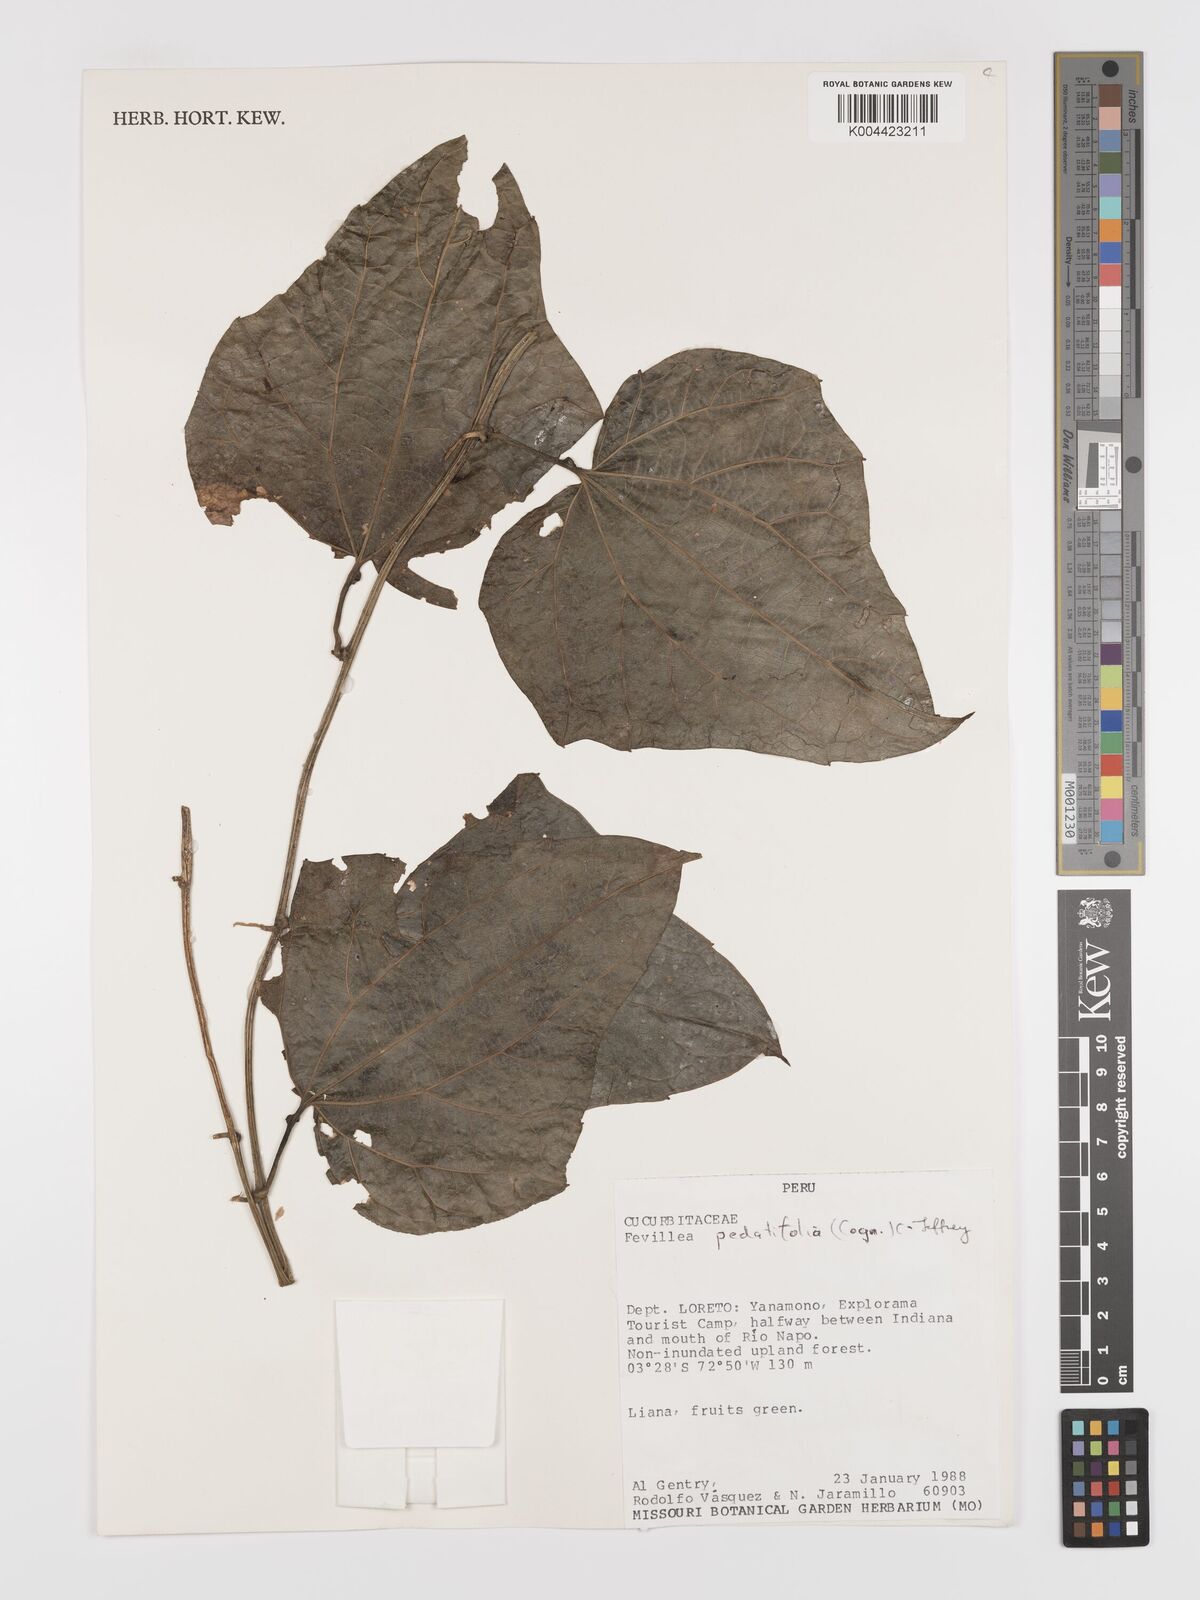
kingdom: Plantae
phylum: Tracheophyta
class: Magnoliopsida
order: Cucurbitales
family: Cucurbitaceae
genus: Fevillea
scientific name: Fevillea pedatifolia
